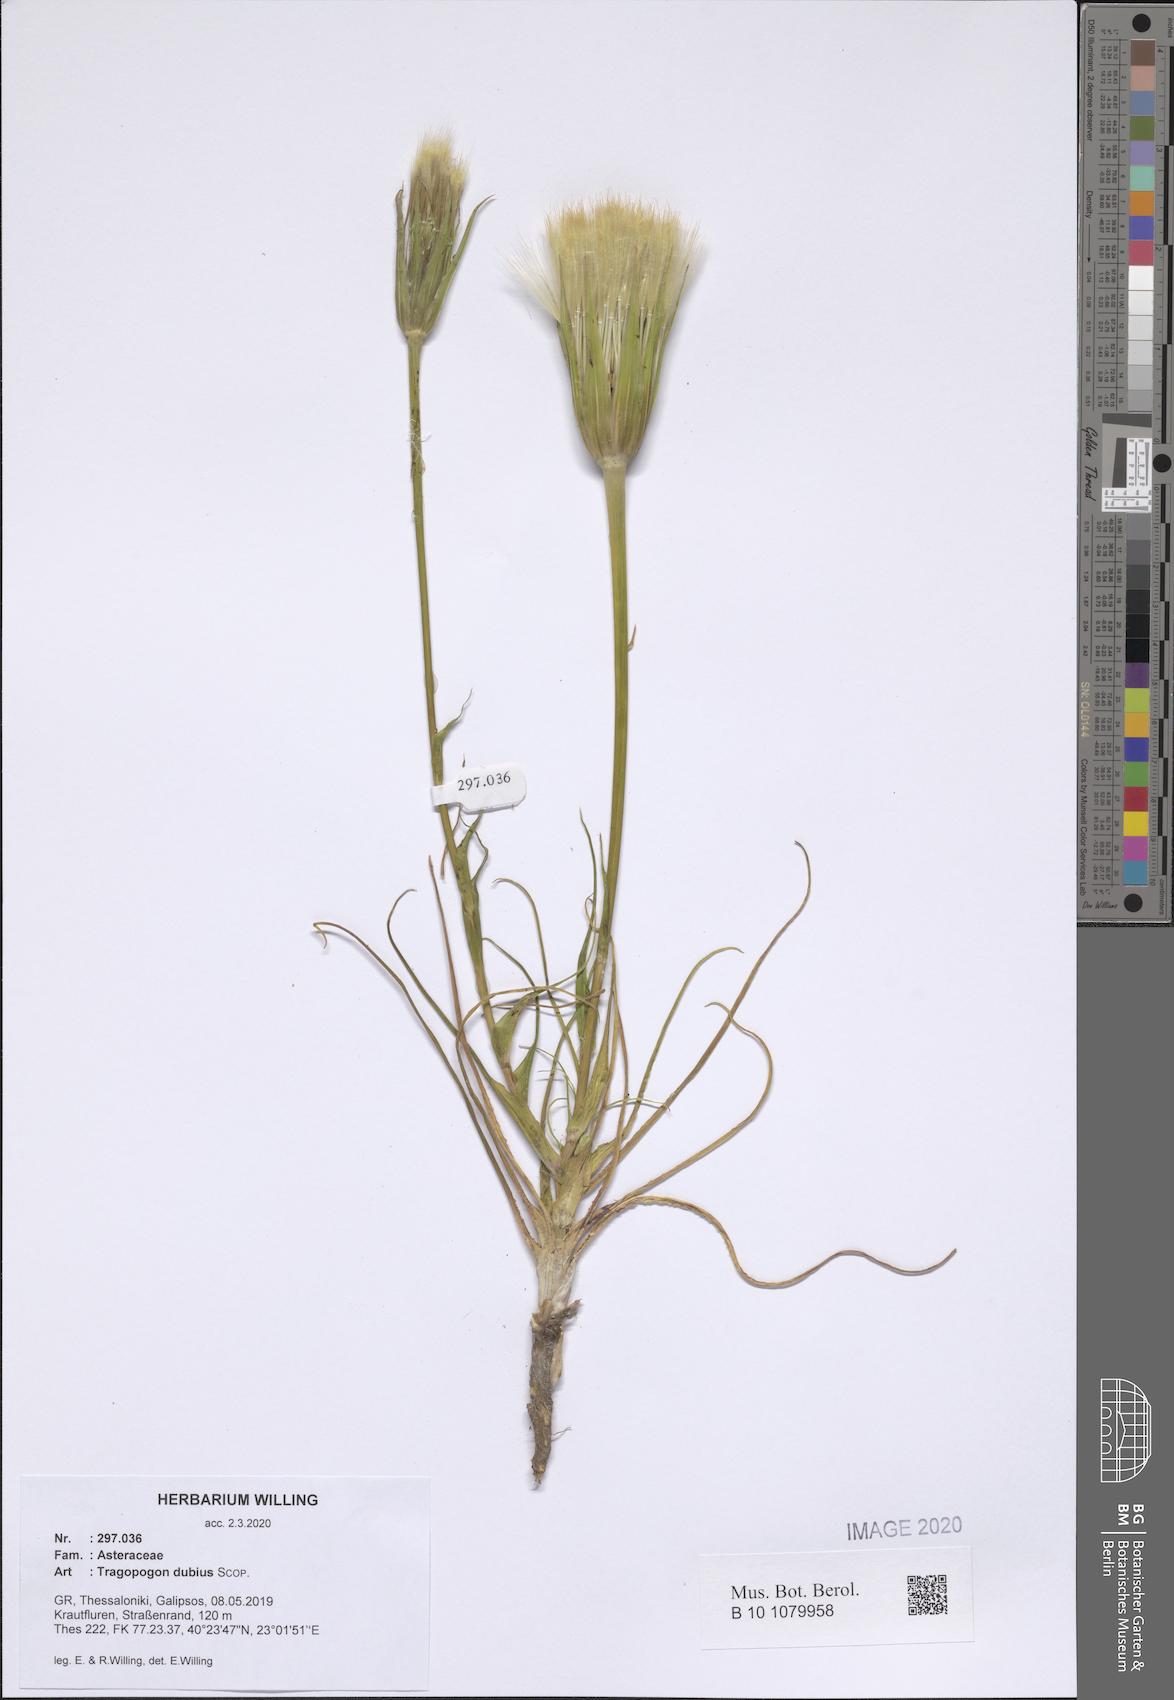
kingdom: Plantae
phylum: Tracheophyta
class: Magnoliopsida
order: Asterales
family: Asteraceae
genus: Tragopogon
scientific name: Tragopogon dubius
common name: Yellow salsify
